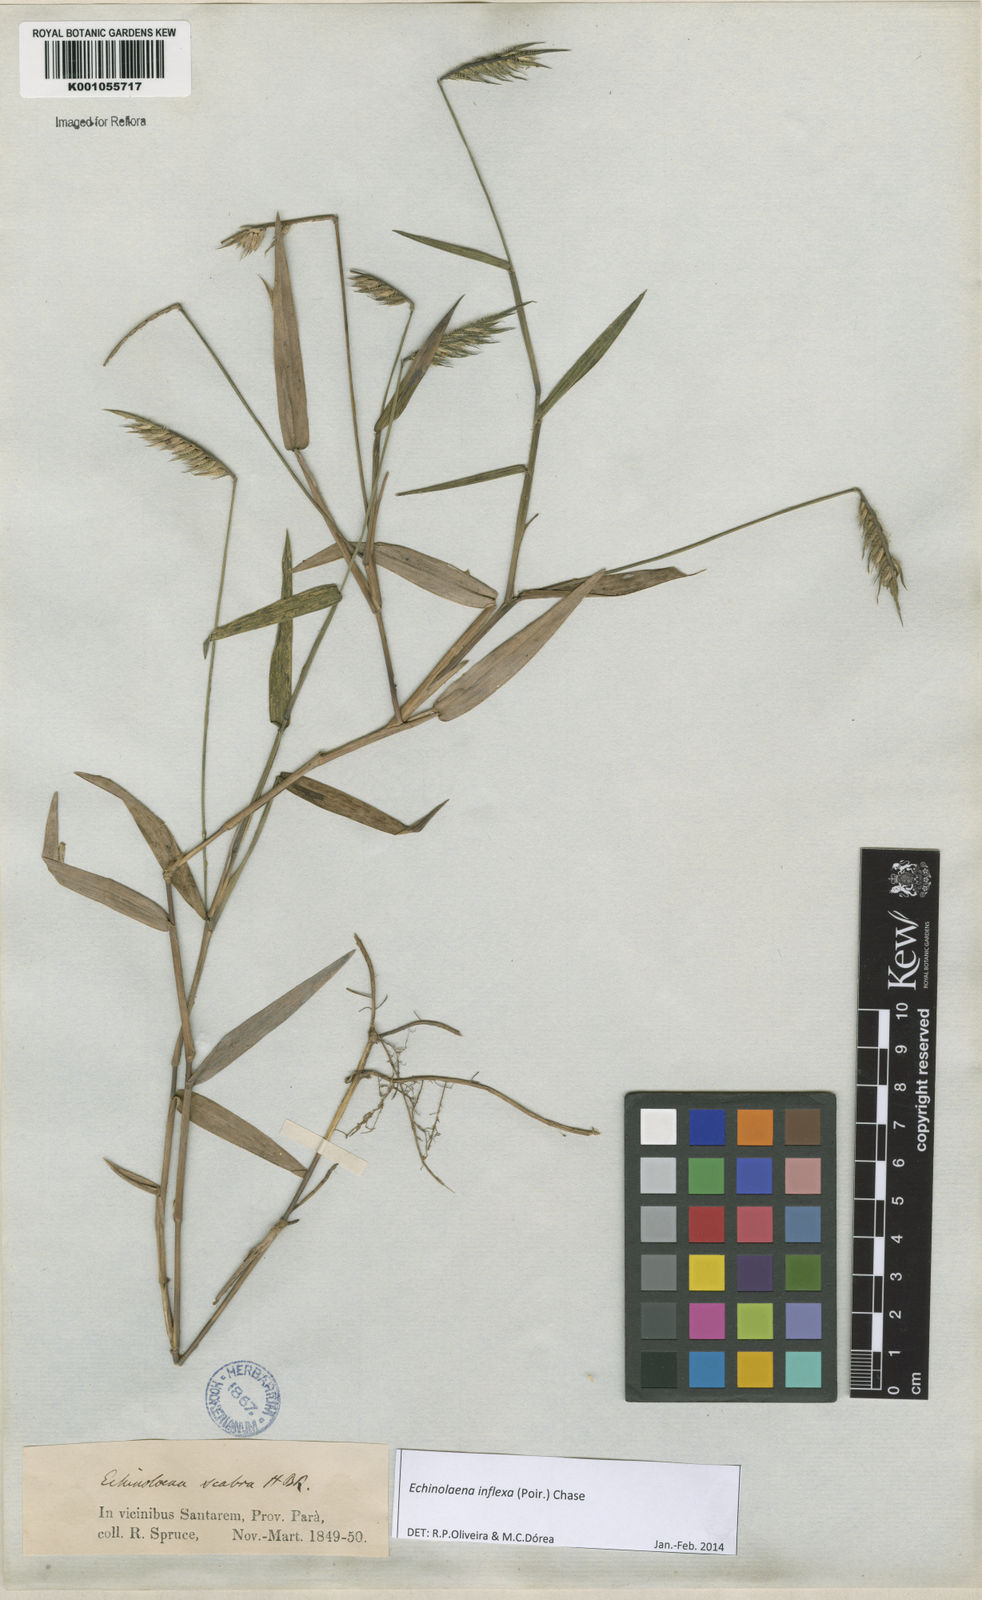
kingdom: Plantae
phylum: Tracheophyta
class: Liliopsida
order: Poales
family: Poaceae
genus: Echinolaena
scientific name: Echinolaena inflexa
